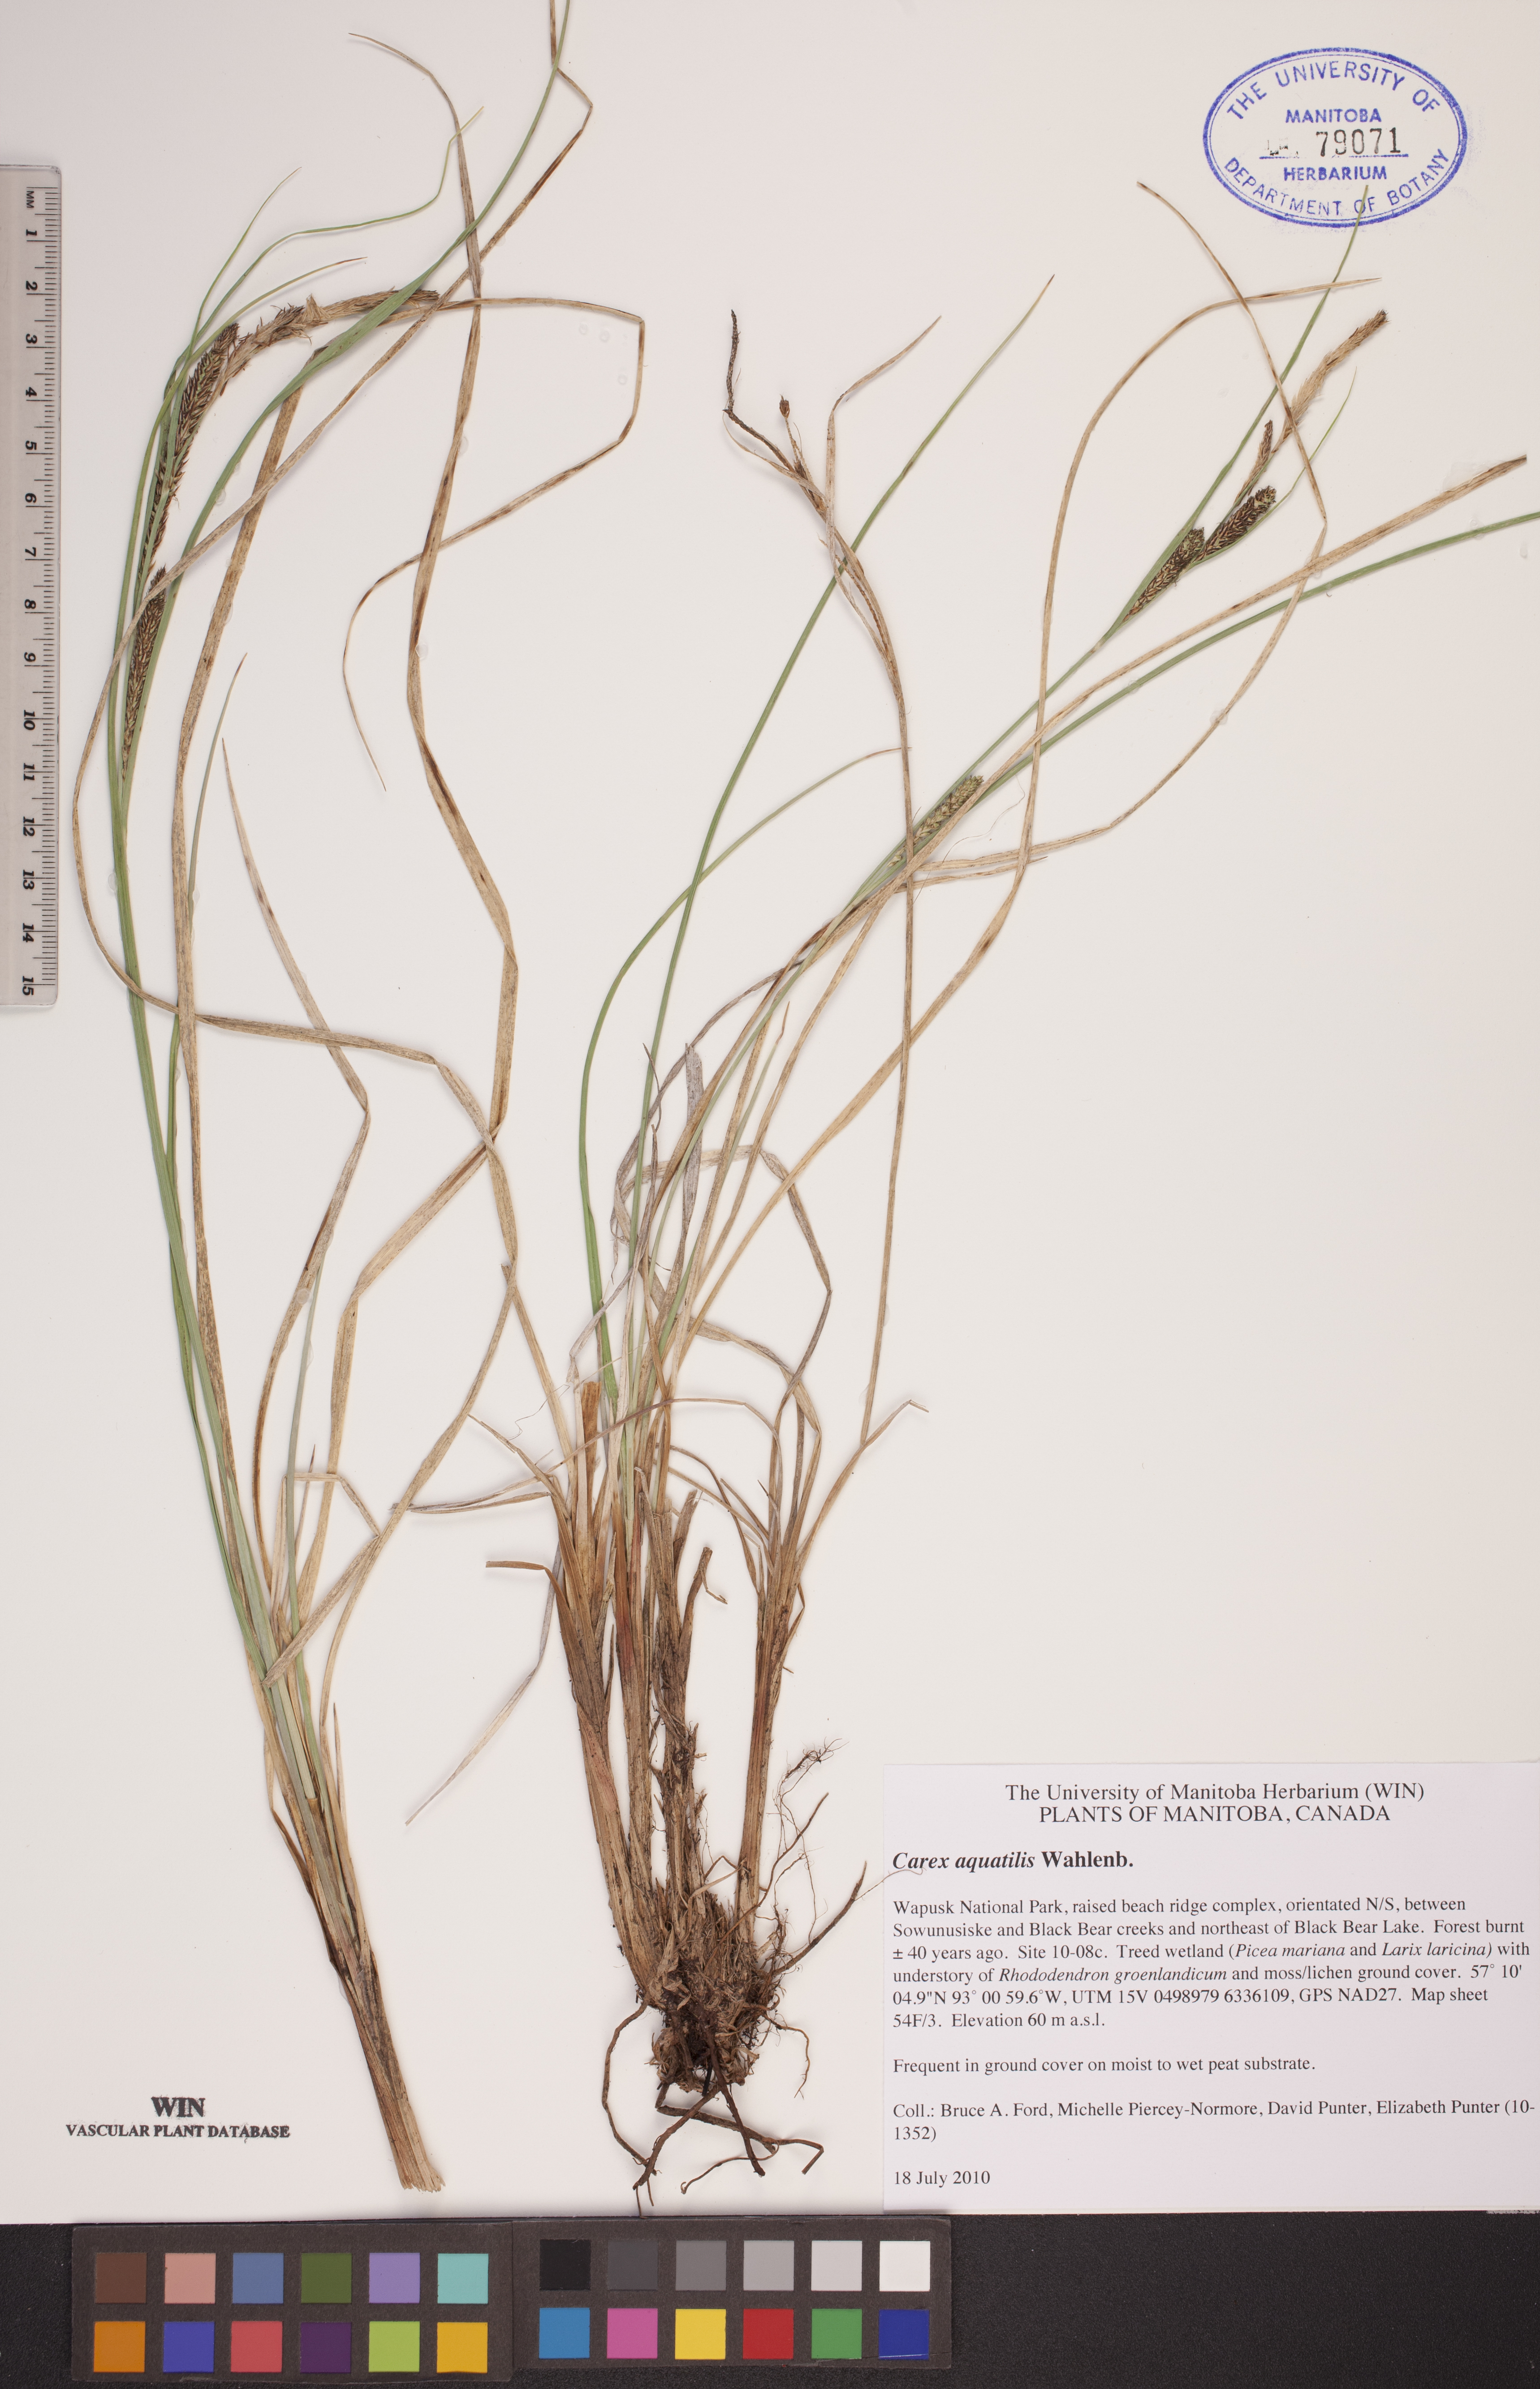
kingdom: Plantae
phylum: Tracheophyta
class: Liliopsida
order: Poales
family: Cyperaceae
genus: Carex
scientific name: Carex aquatilis
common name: Water sedge
